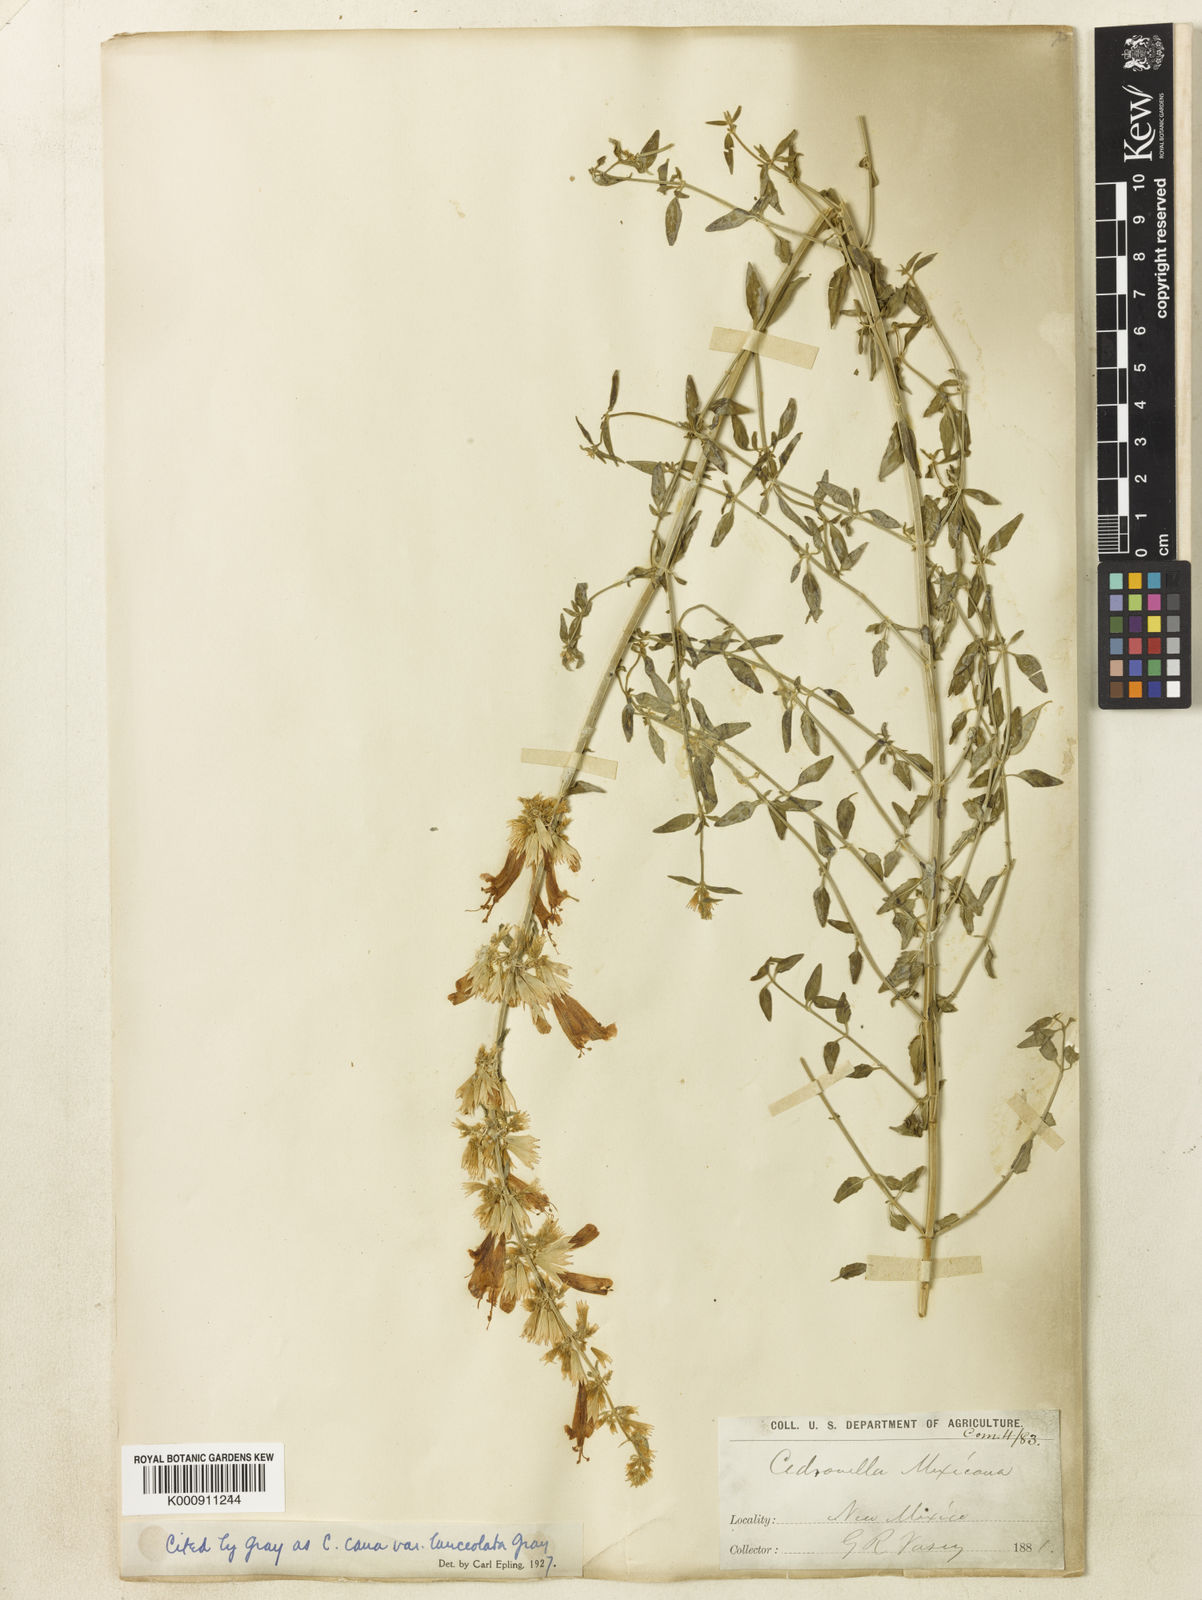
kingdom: Plantae
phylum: Tracheophyta
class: Magnoliopsida
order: Lamiales
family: Lamiaceae
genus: Agastache
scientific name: Agastache cana
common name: Double bubble mint
